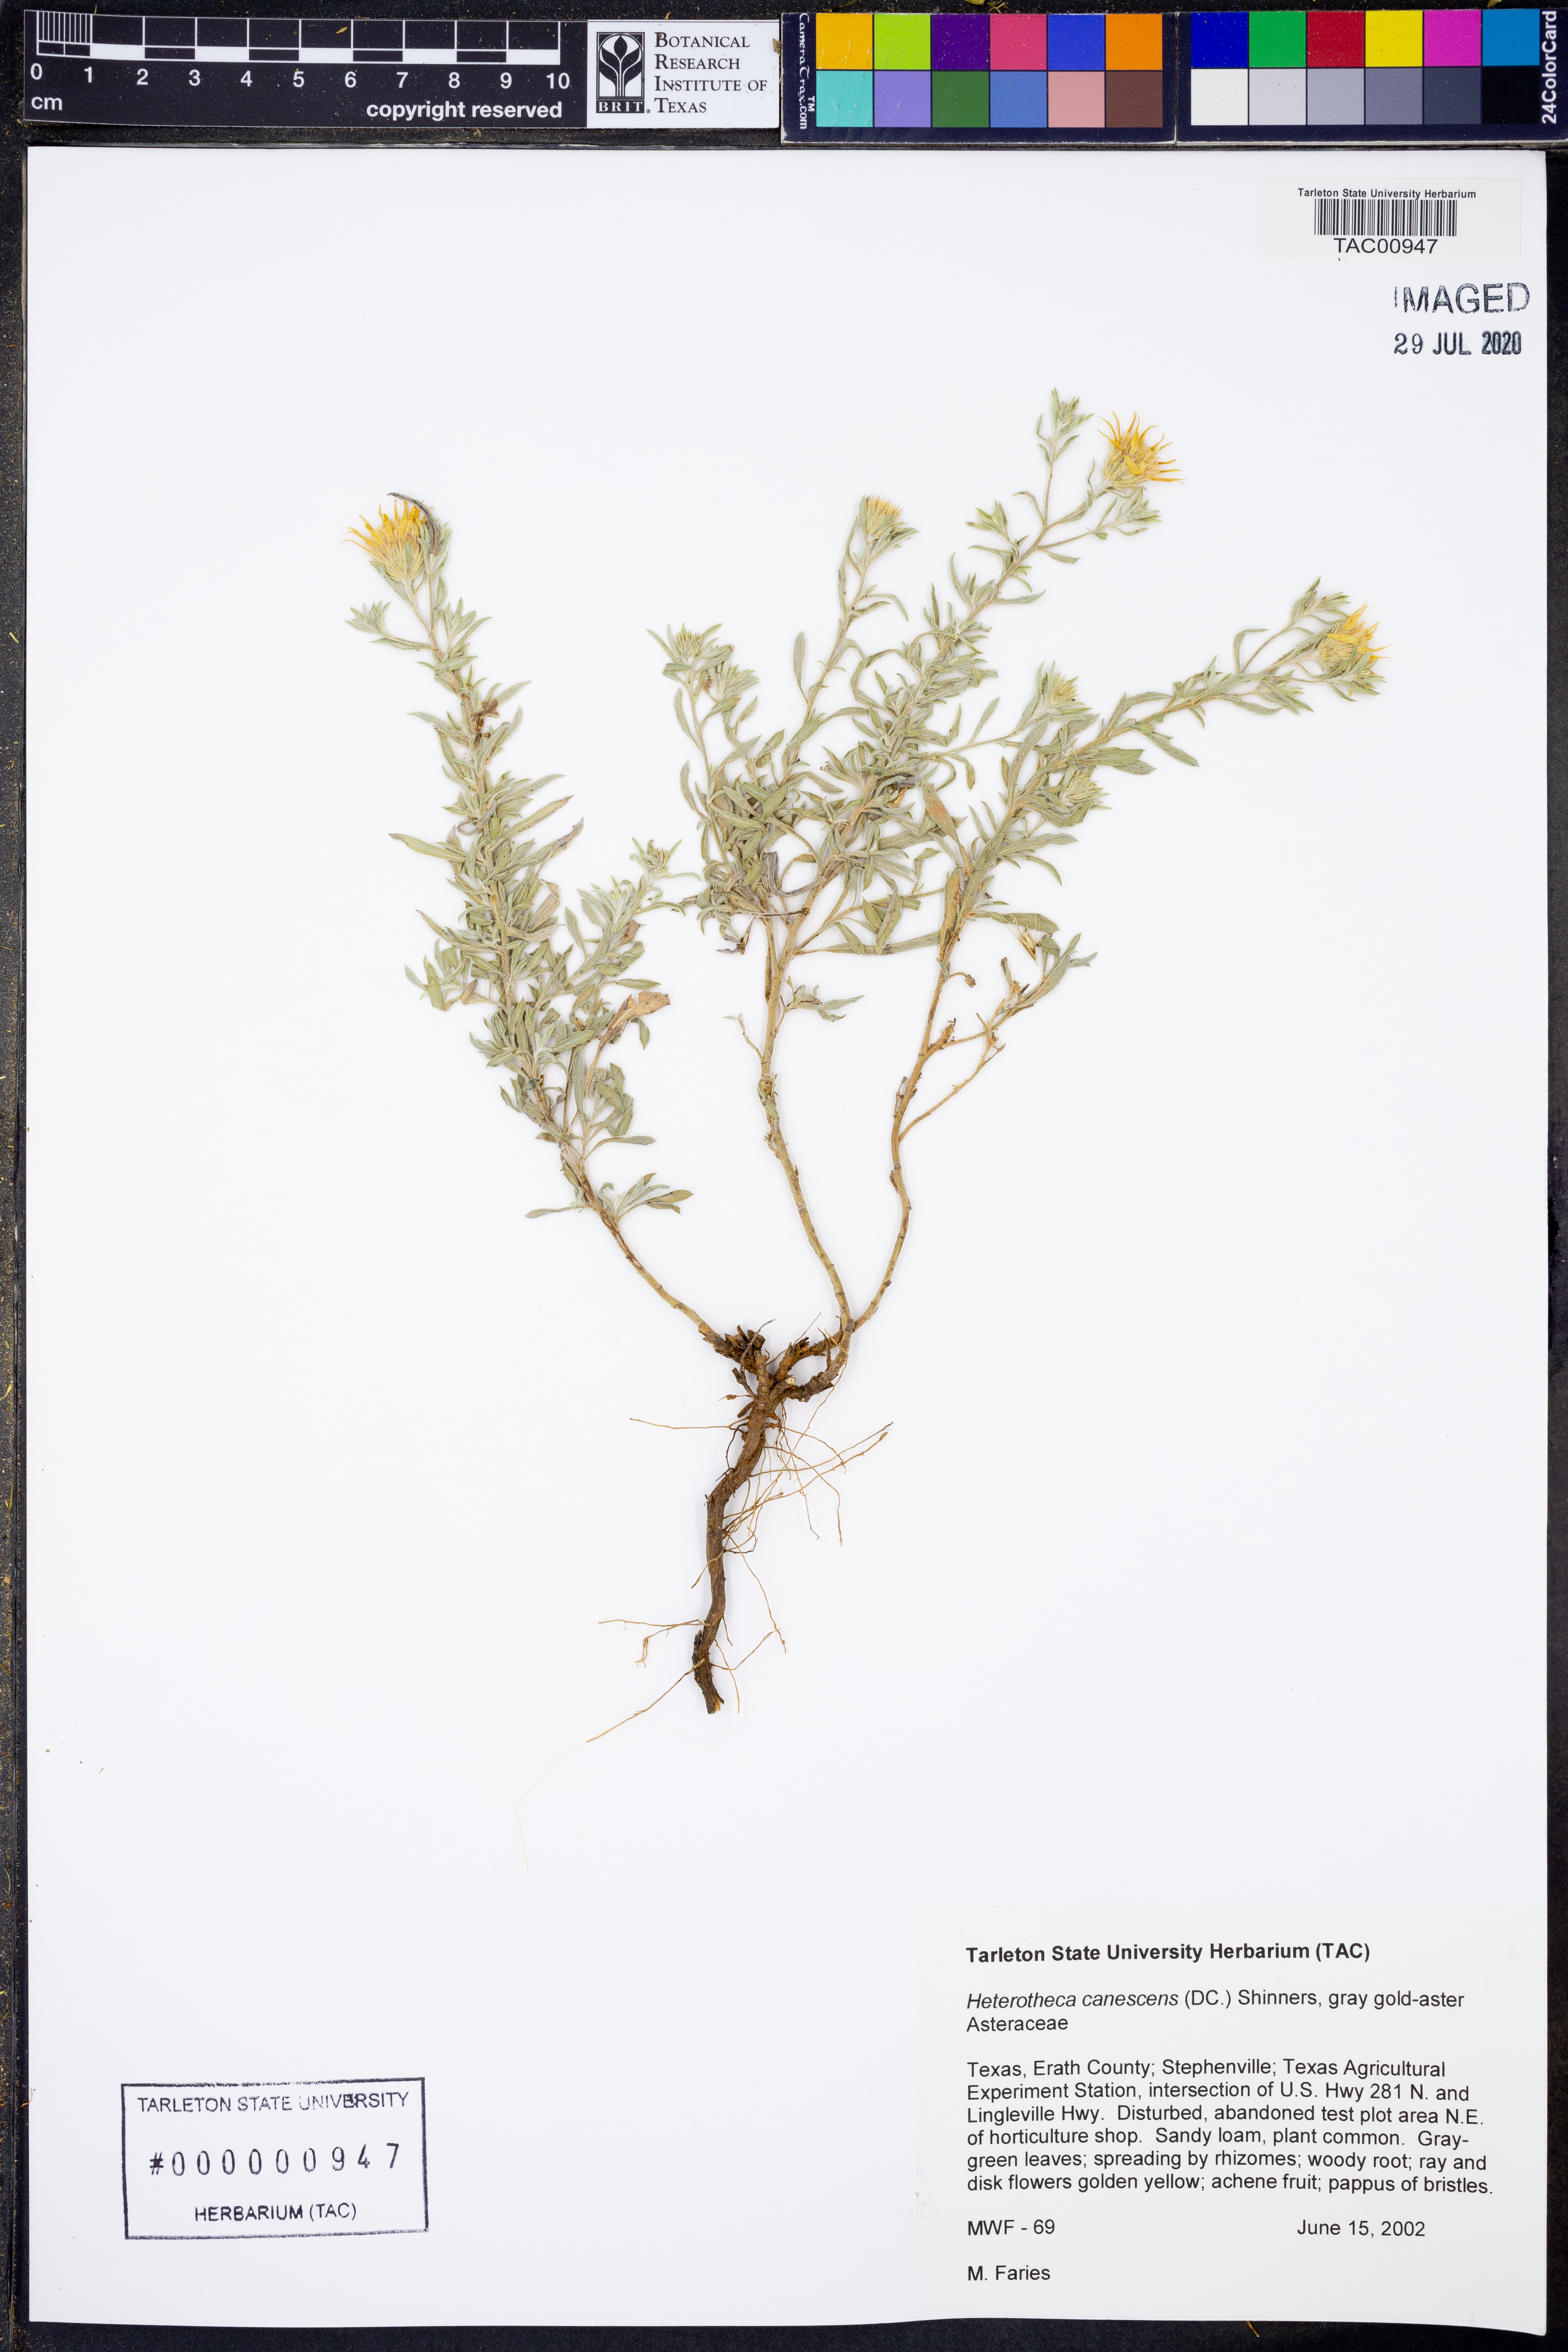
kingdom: Plantae
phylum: Tracheophyta
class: Magnoliopsida
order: Asterales
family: Asteraceae
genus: Heterotheca
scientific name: Heterotheca canescens
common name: Hoary golden-aster
